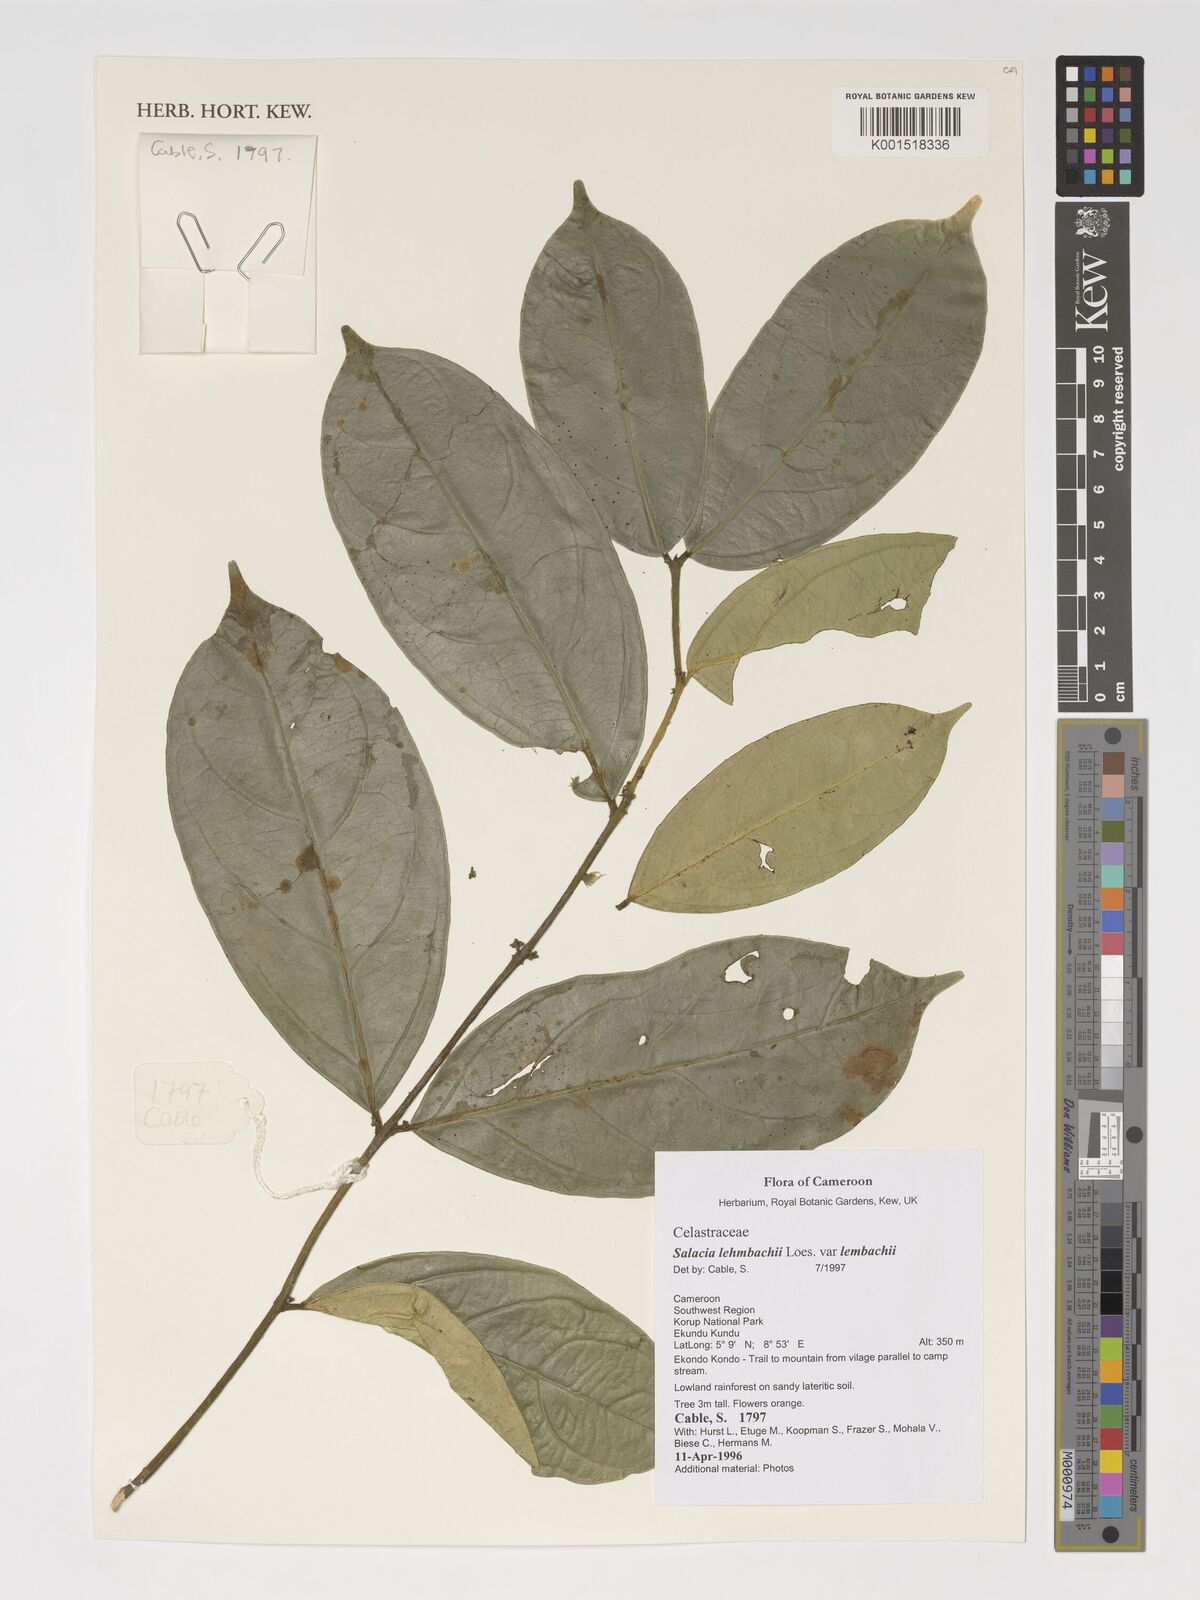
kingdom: Plantae
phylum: Tracheophyta
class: Magnoliopsida
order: Celastrales
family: Celastraceae
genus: Salacia
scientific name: Salacia lehmbachii
